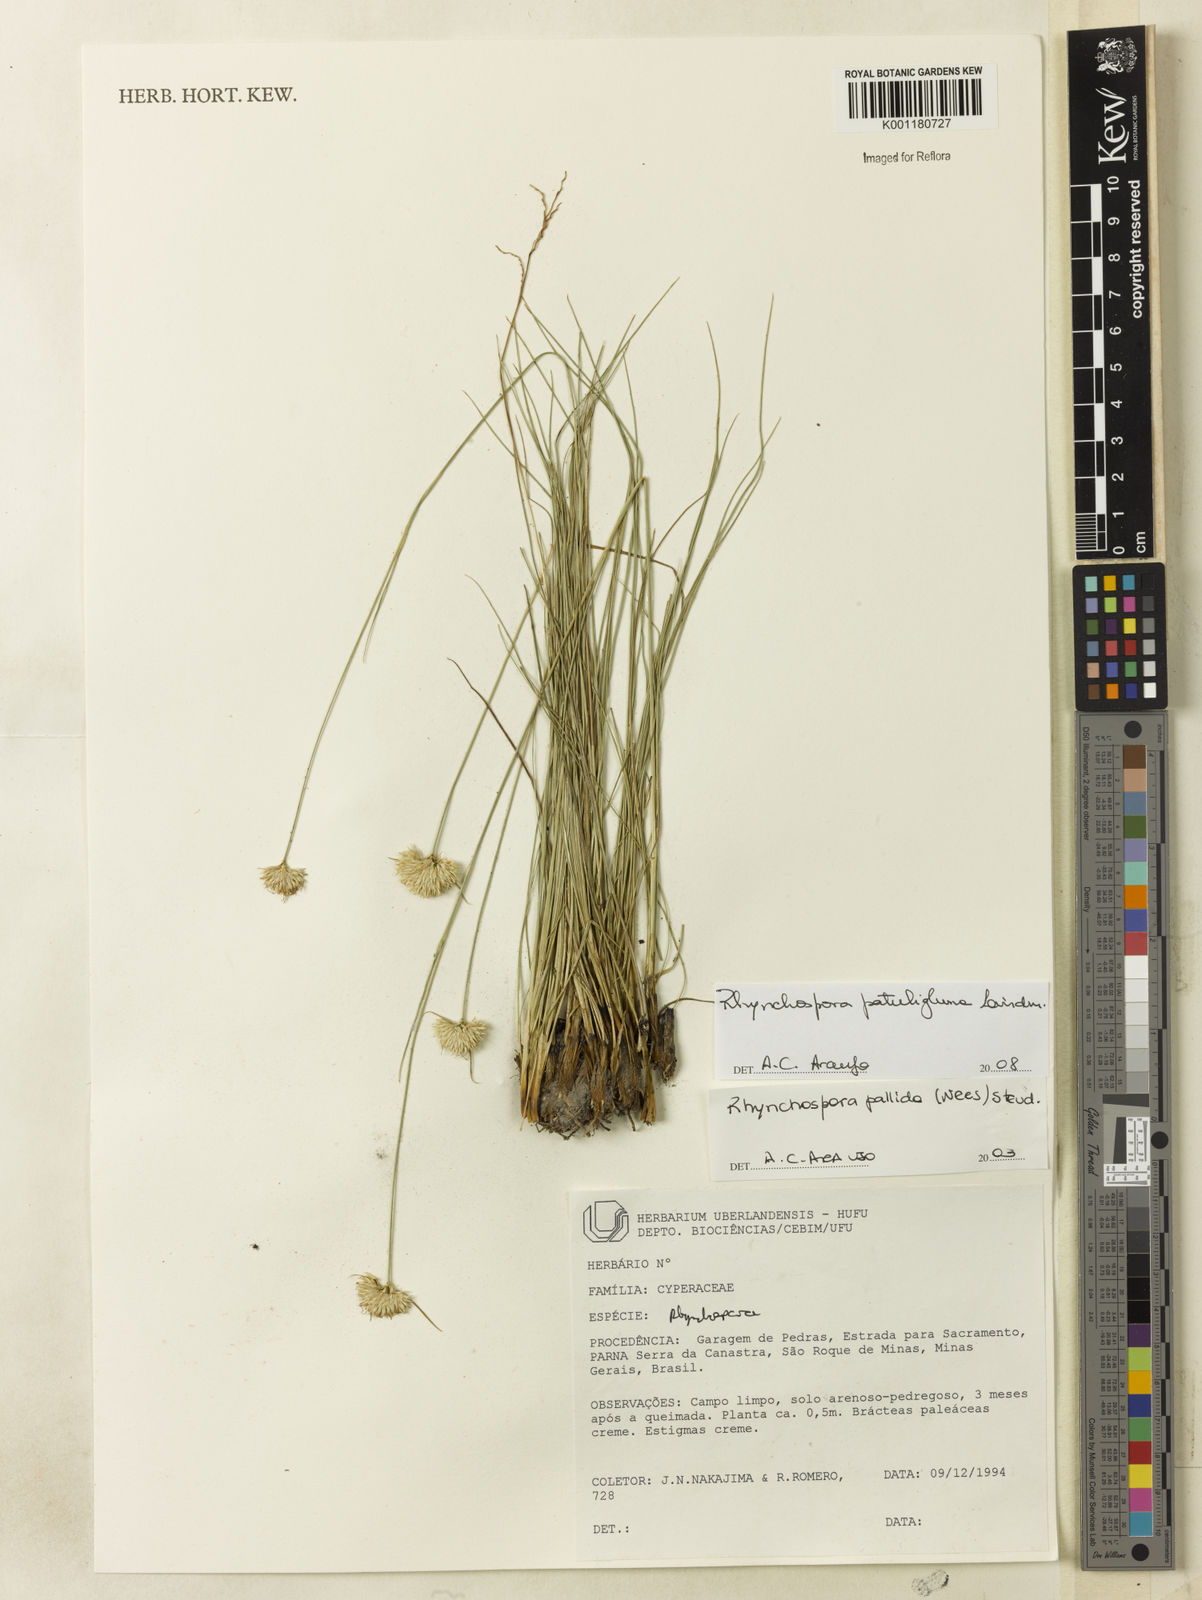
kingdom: Plantae
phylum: Tracheophyta
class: Liliopsida
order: Poales
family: Cyperaceae
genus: Rhynchospora
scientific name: Rhynchospora patuligluma
